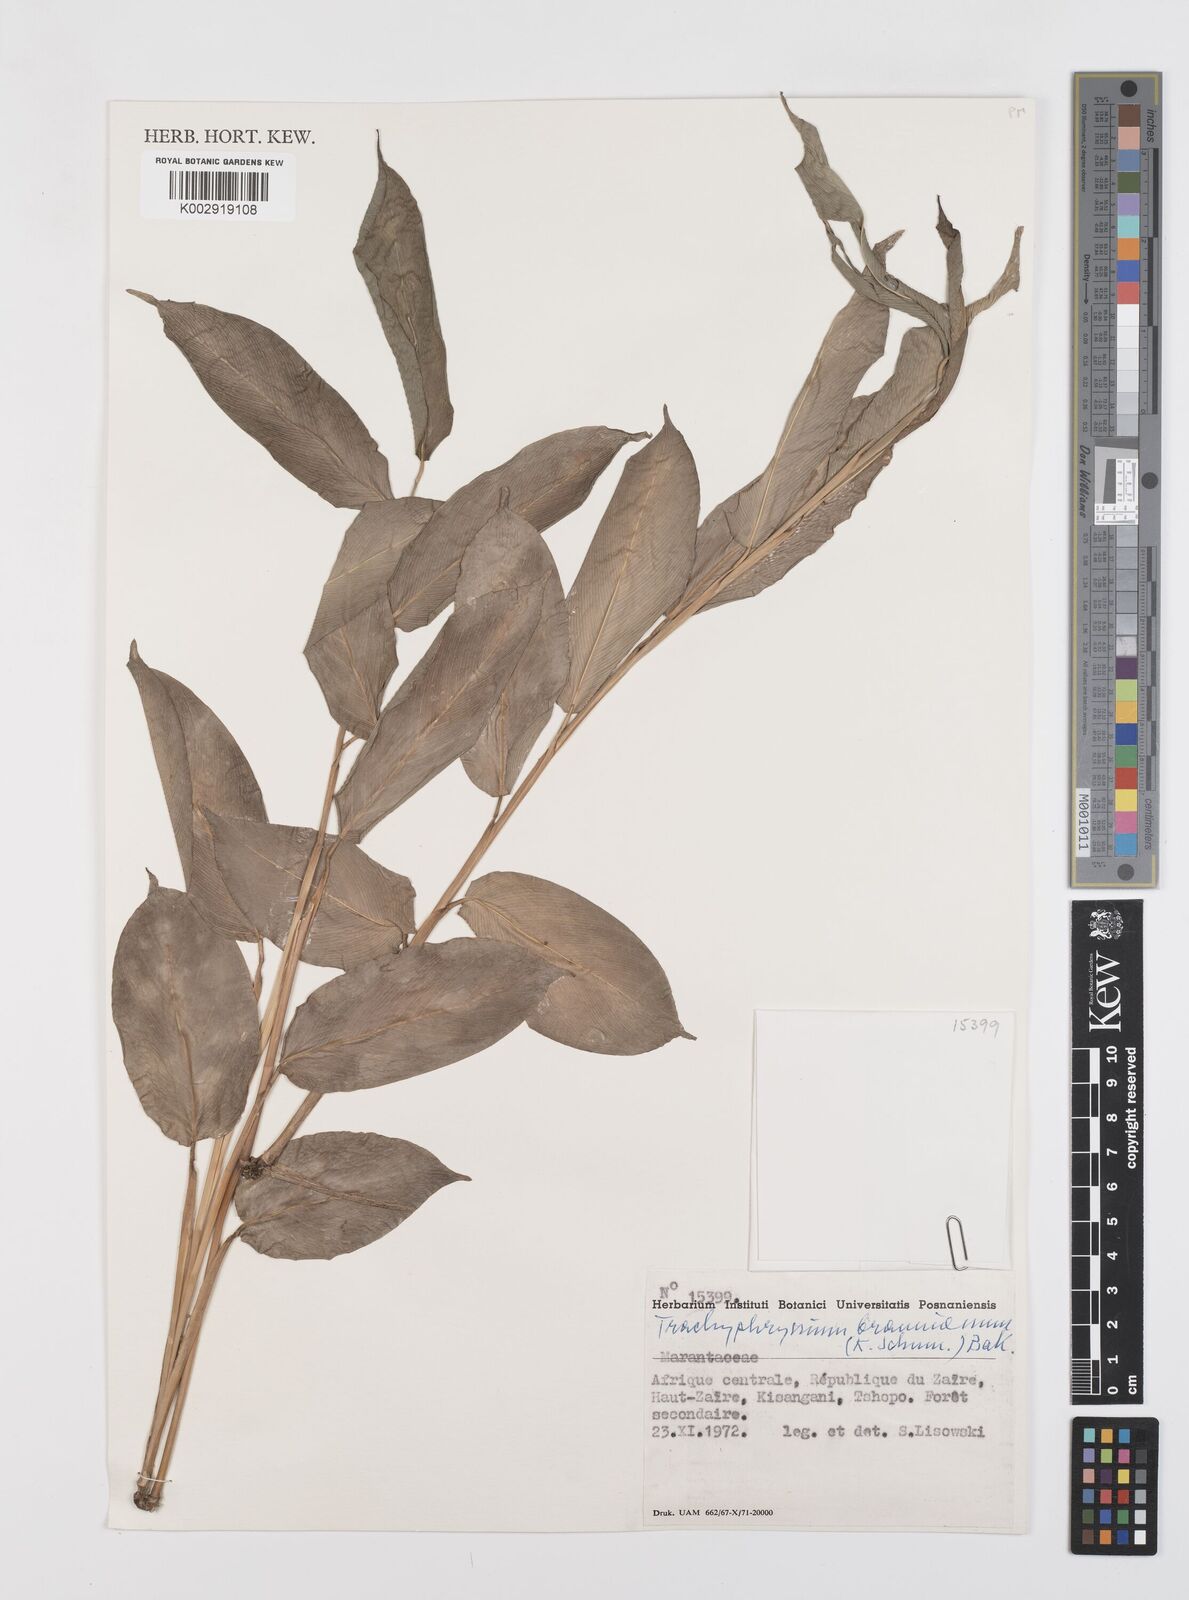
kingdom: Plantae
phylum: Tracheophyta
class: Liliopsida
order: Zingiberales
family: Marantaceae
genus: Trachyphrynium
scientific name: Trachyphrynium braunianum
